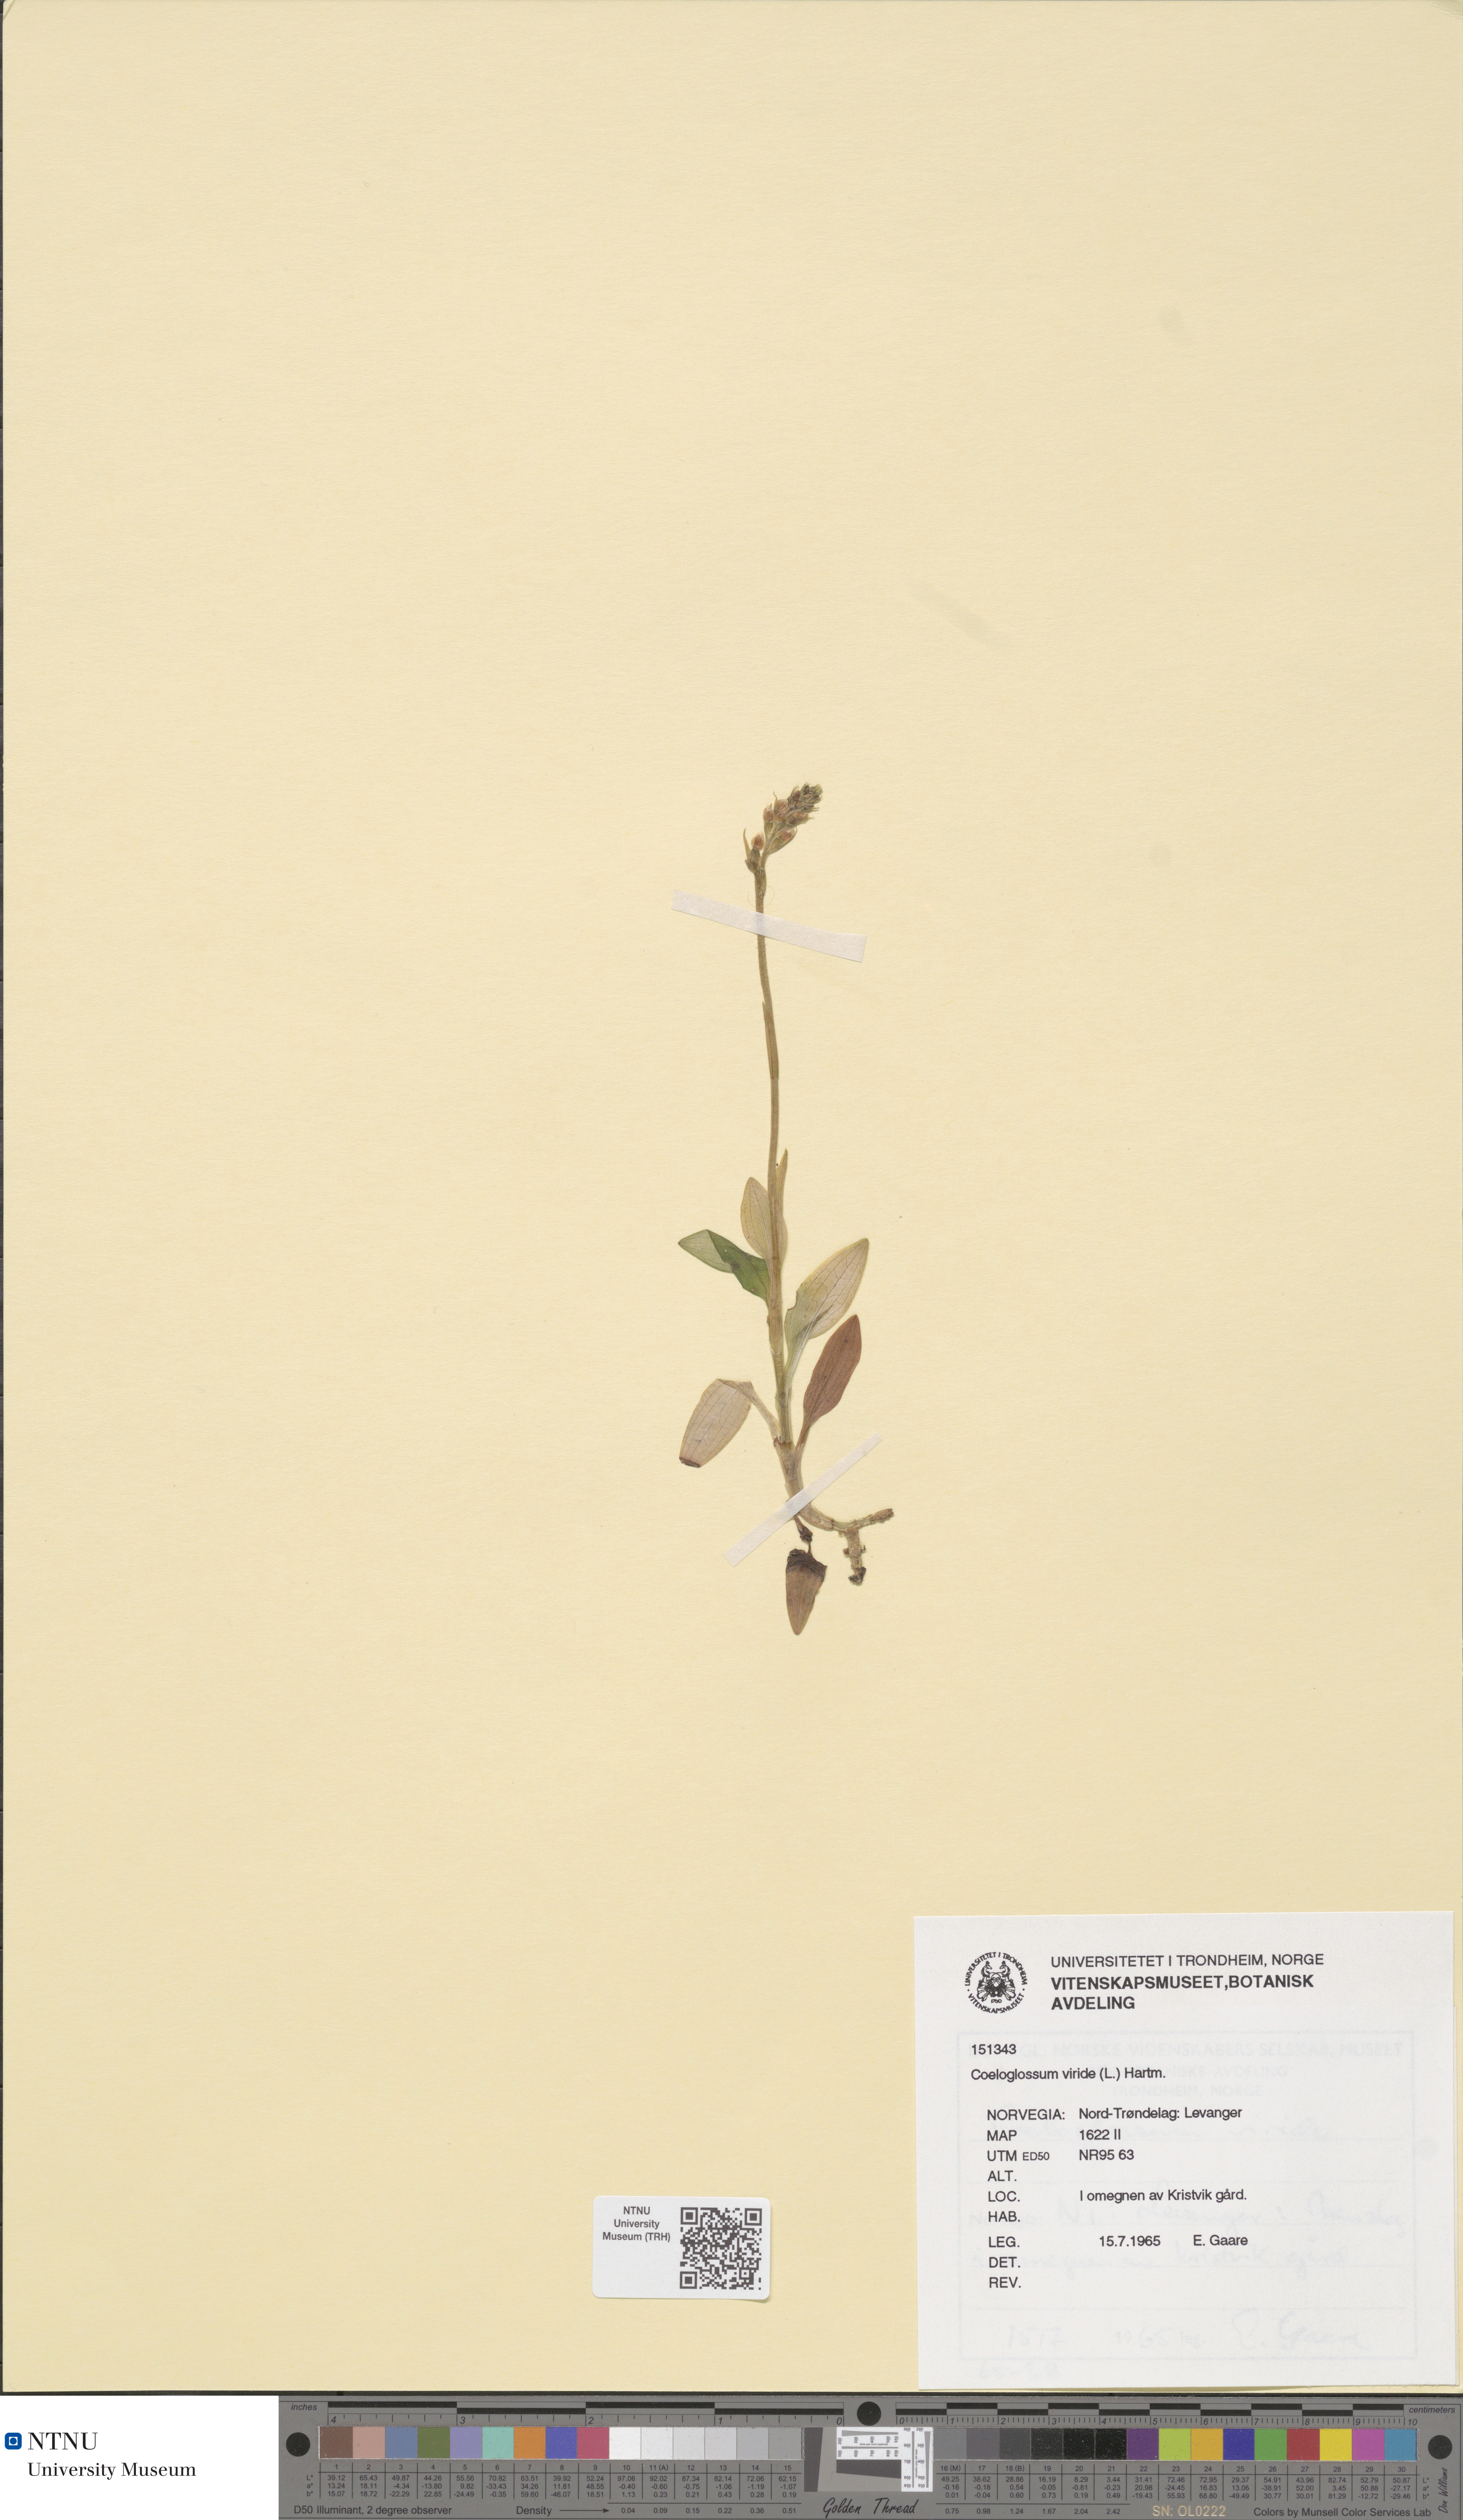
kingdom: Plantae
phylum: Tracheophyta
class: Liliopsida
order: Asparagales
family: Orchidaceae
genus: Dactylorhiza
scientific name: Dactylorhiza viridis
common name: Longbract frog orchid
